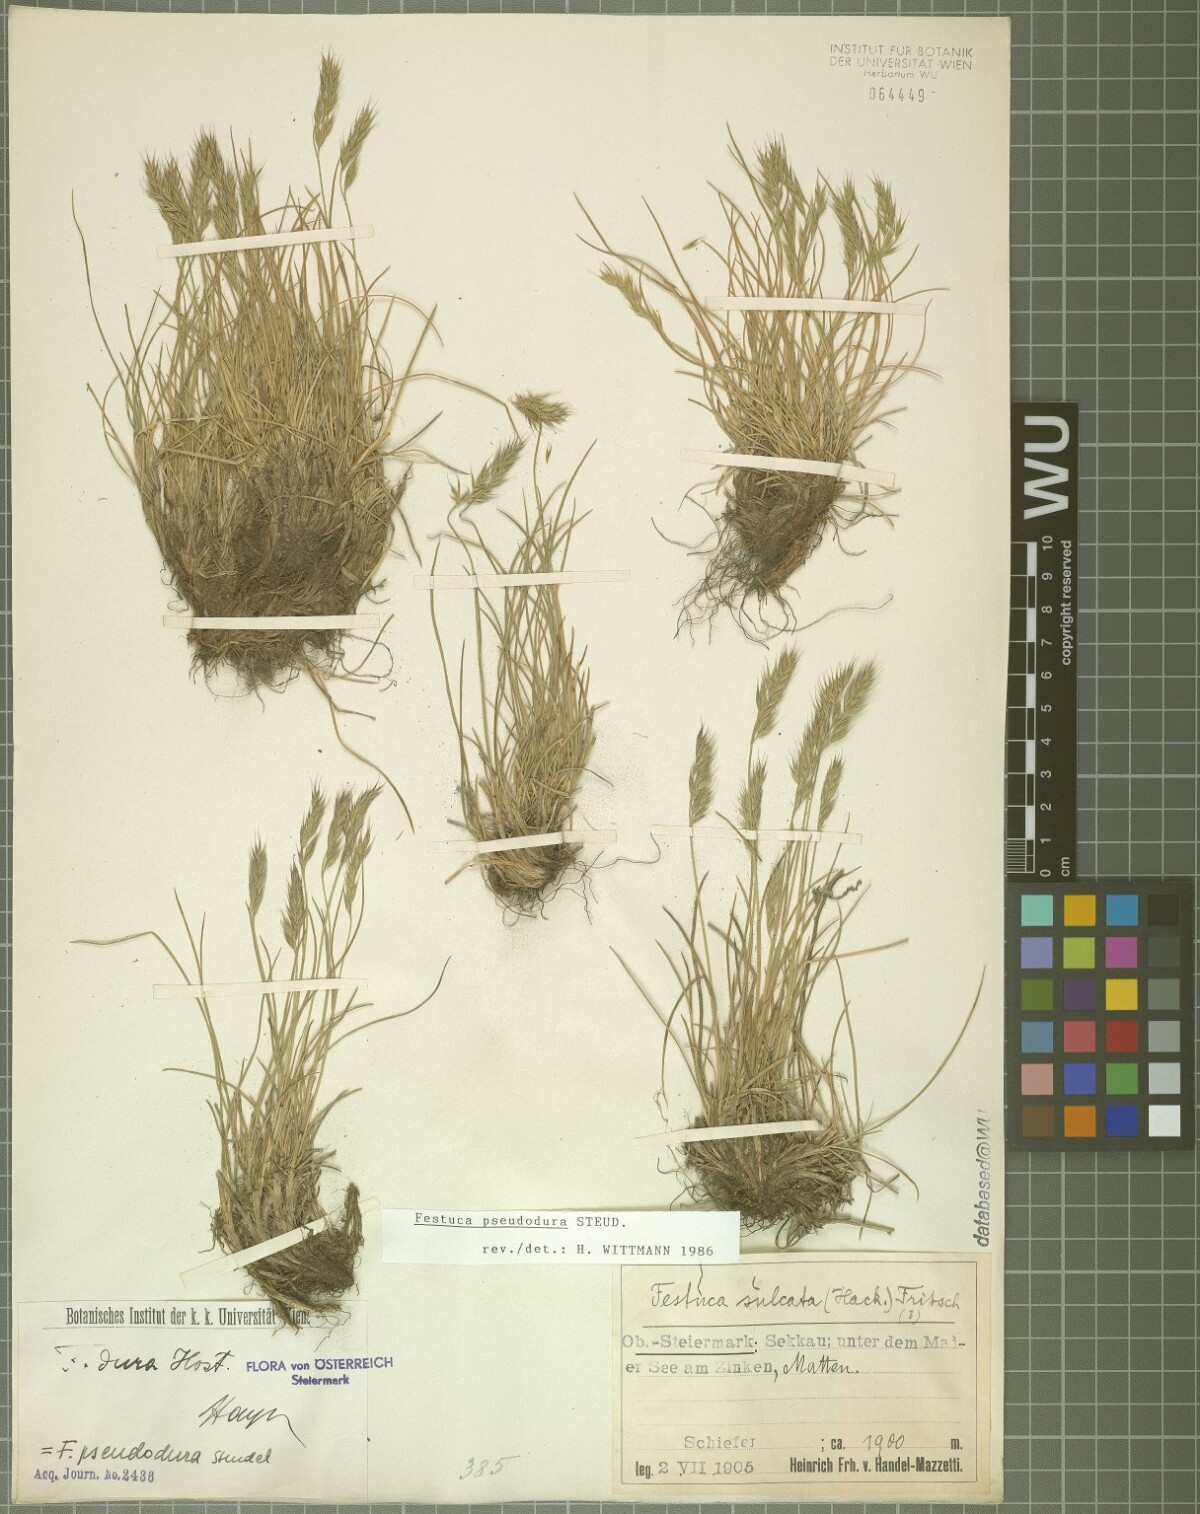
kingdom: Plantae
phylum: Tracheophyta
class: Liliopsida
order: Poales
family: Poaceae
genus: Festuca
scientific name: Festuca pseudodura
